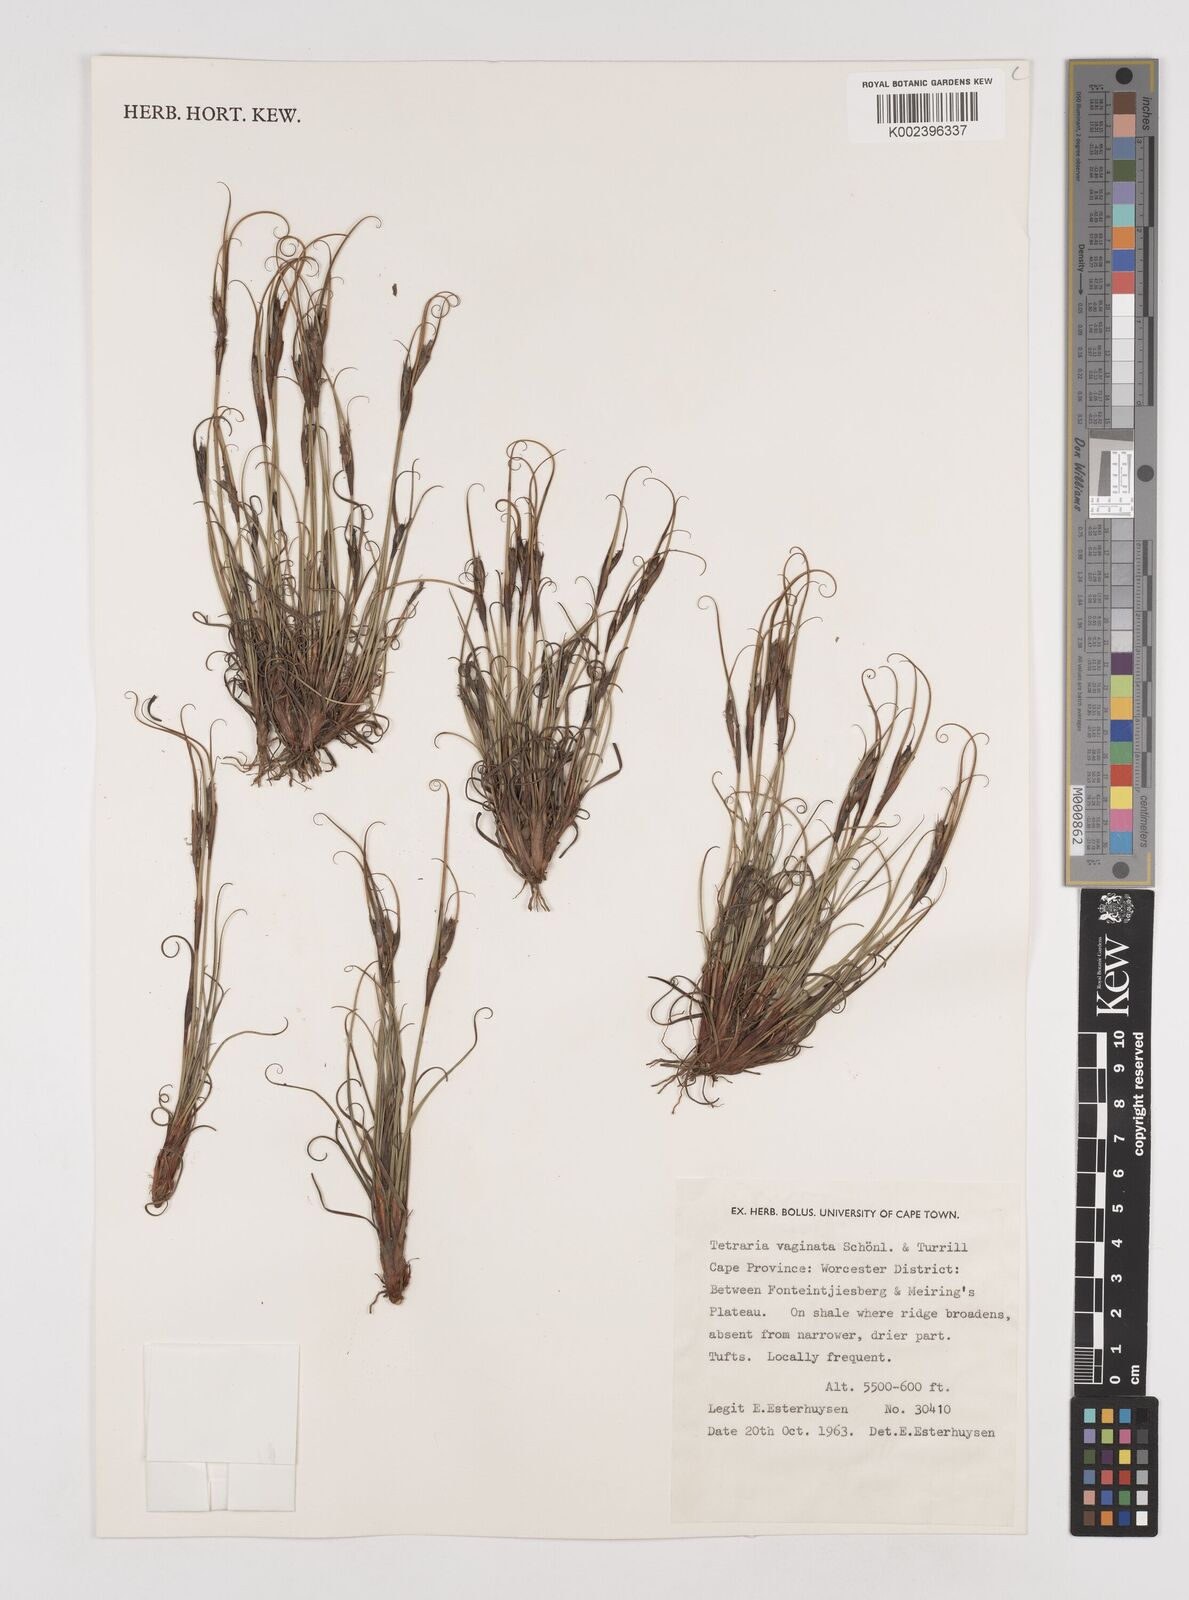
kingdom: Plantae
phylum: Tracheophyta
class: Liliopsida
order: Poales
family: Cyperaceae
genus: Tetraria
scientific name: Tetraria vaginata
